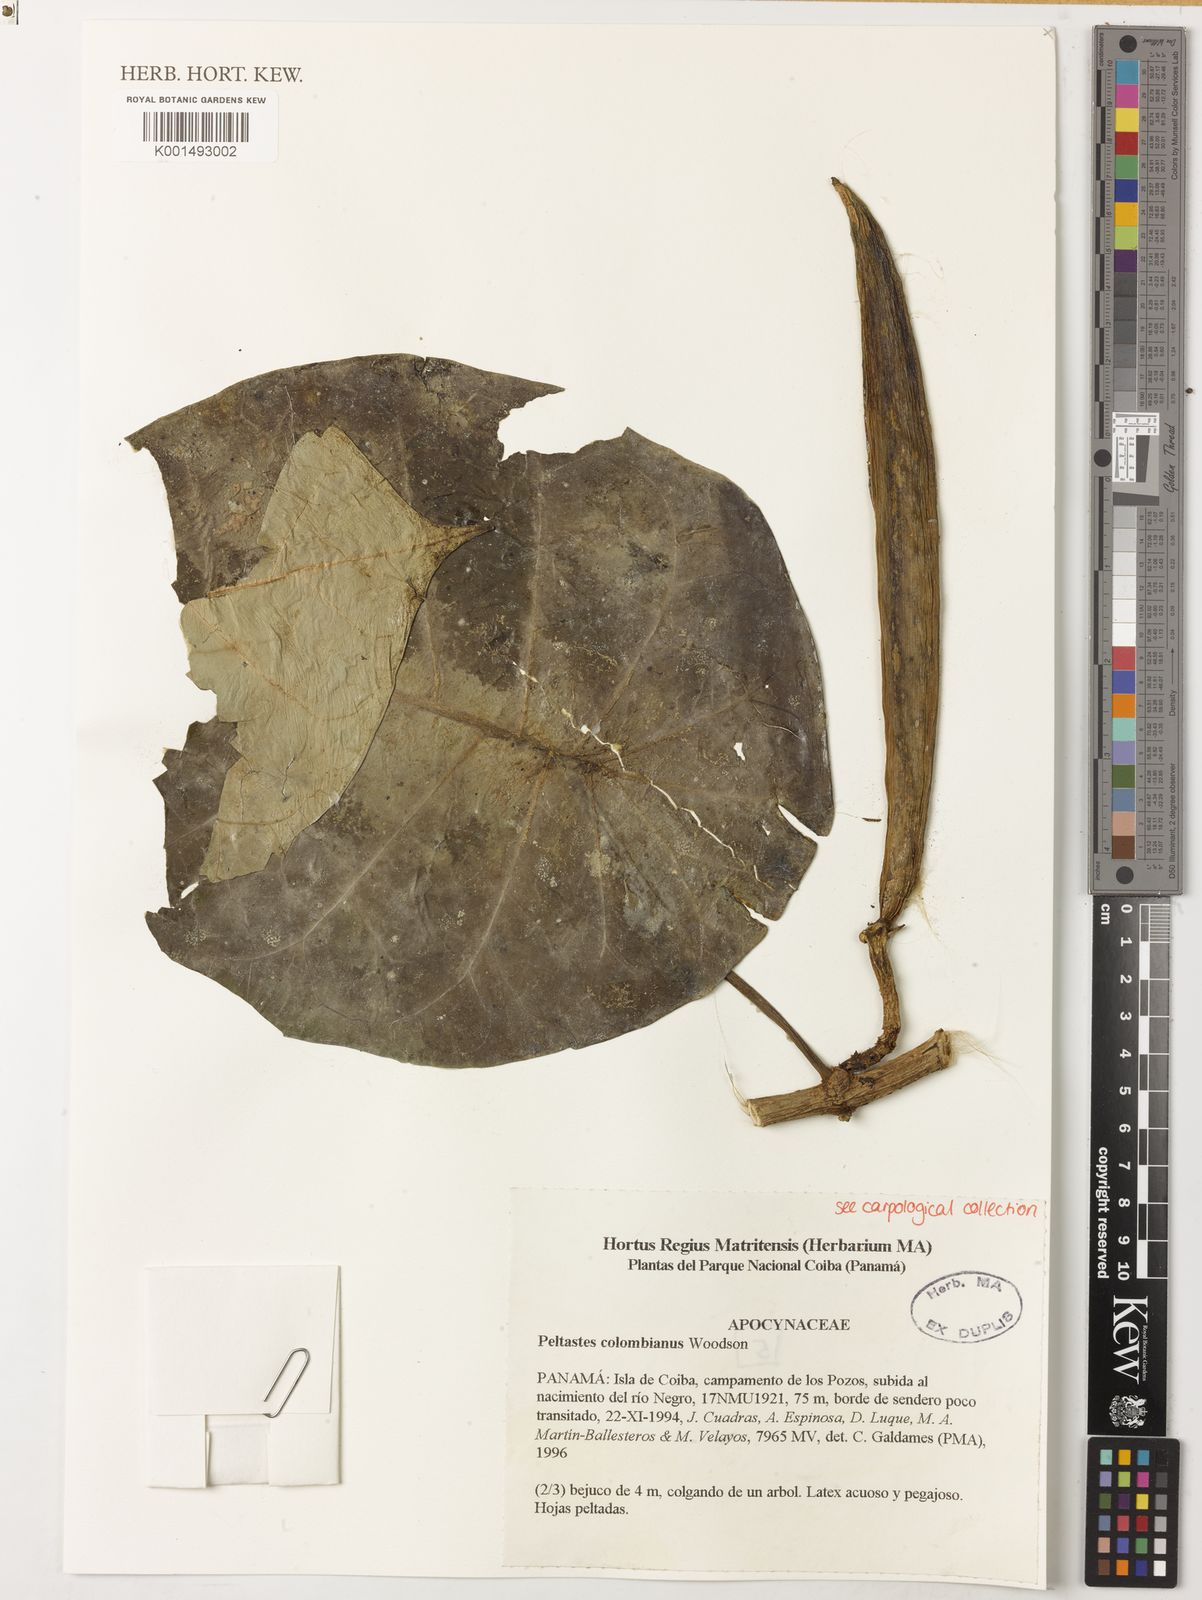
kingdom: Plantae
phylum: Tracheophyta
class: Magnoliopsida
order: Gentianales
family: Apocynaceae
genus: Macropharynx
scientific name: Macropharynx colombiana
